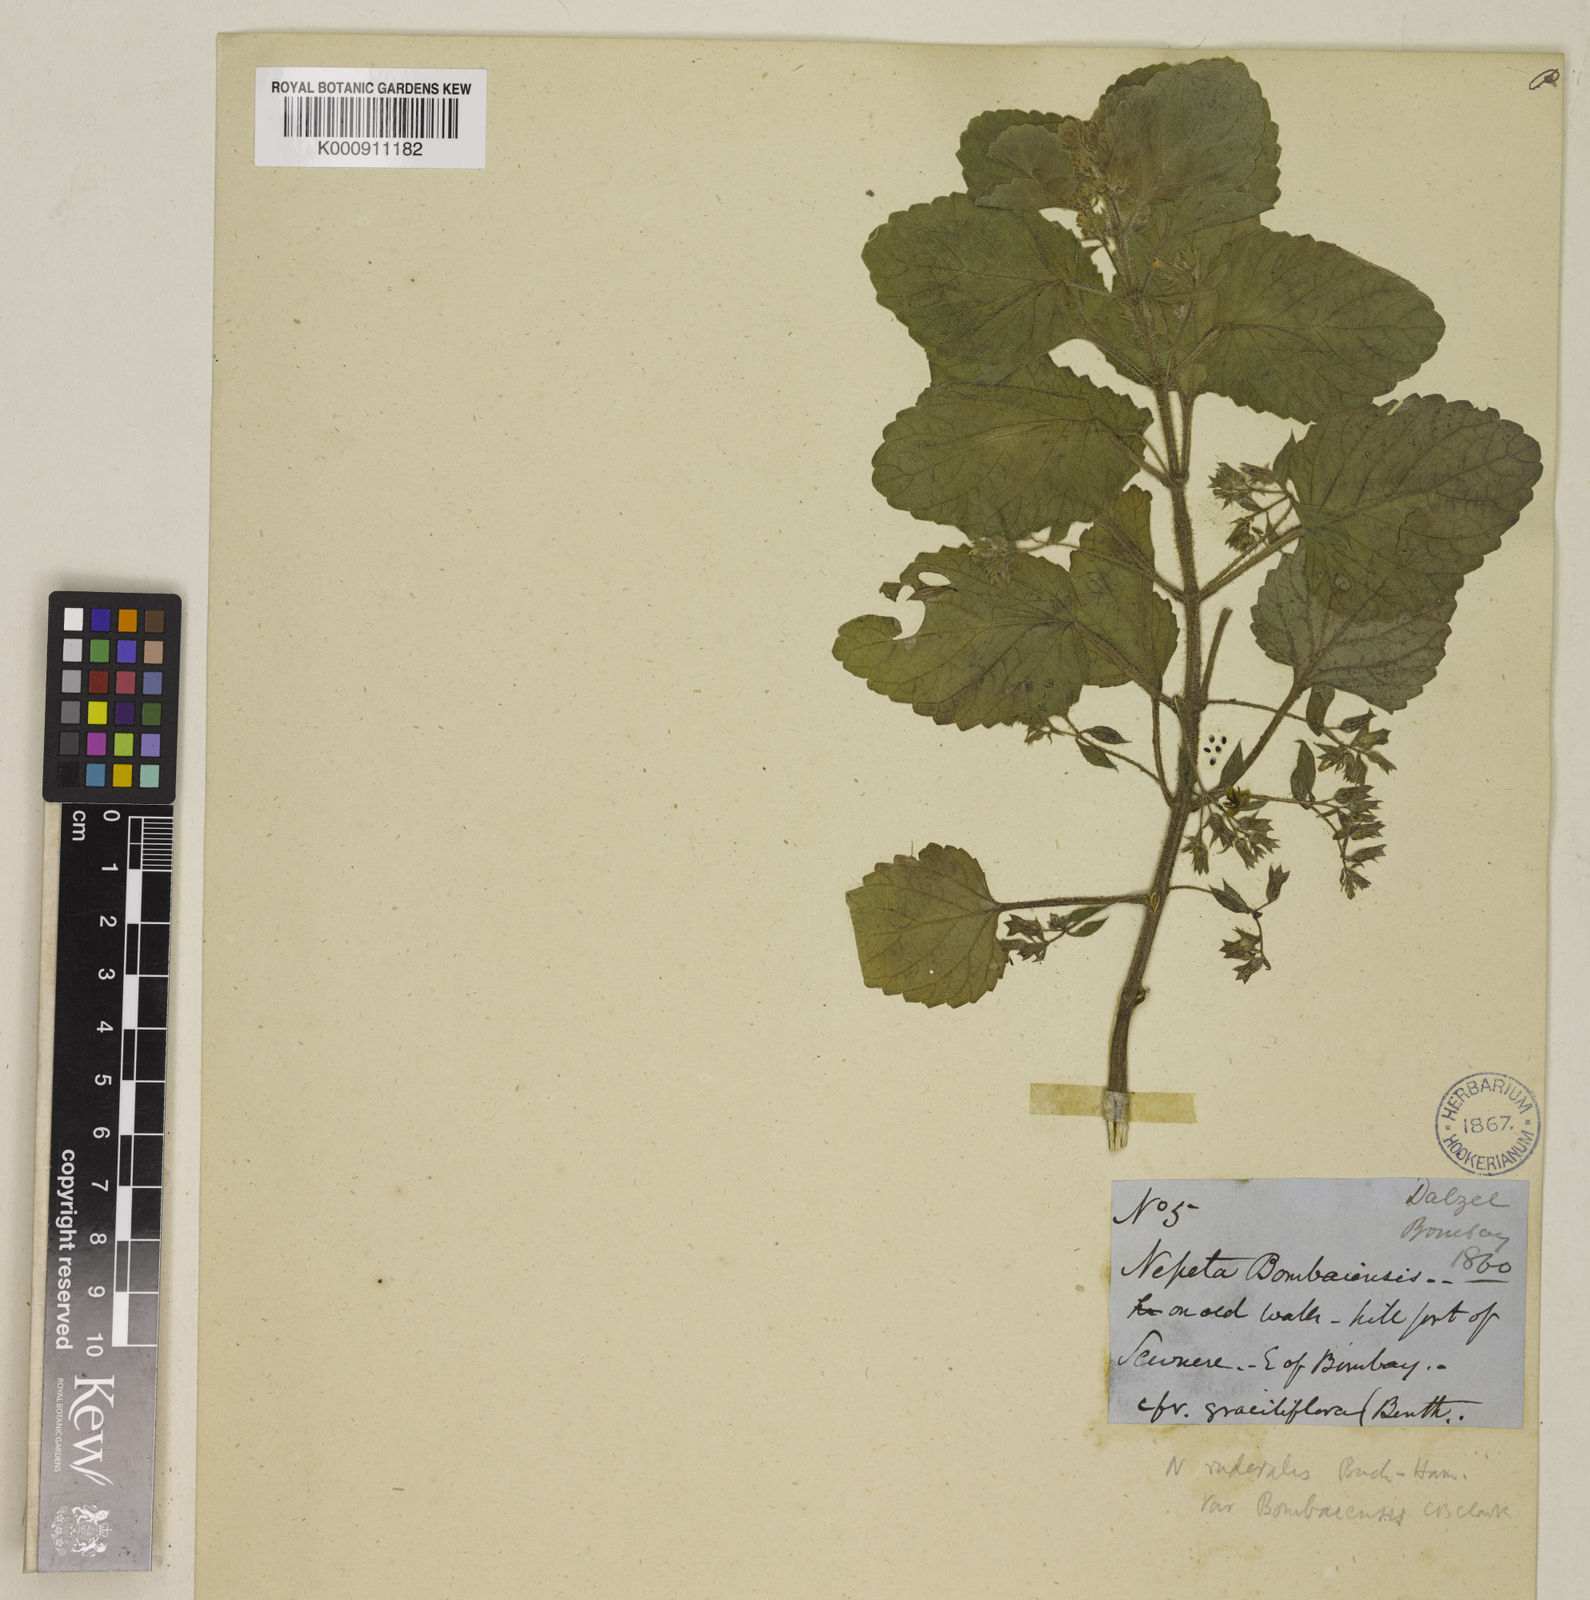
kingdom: Plantae
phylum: Tracheophyta
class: Magnoliopsida
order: Lamiales
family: Lamiaceae
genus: Nepeta
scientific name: Nepeta bombaiensis
